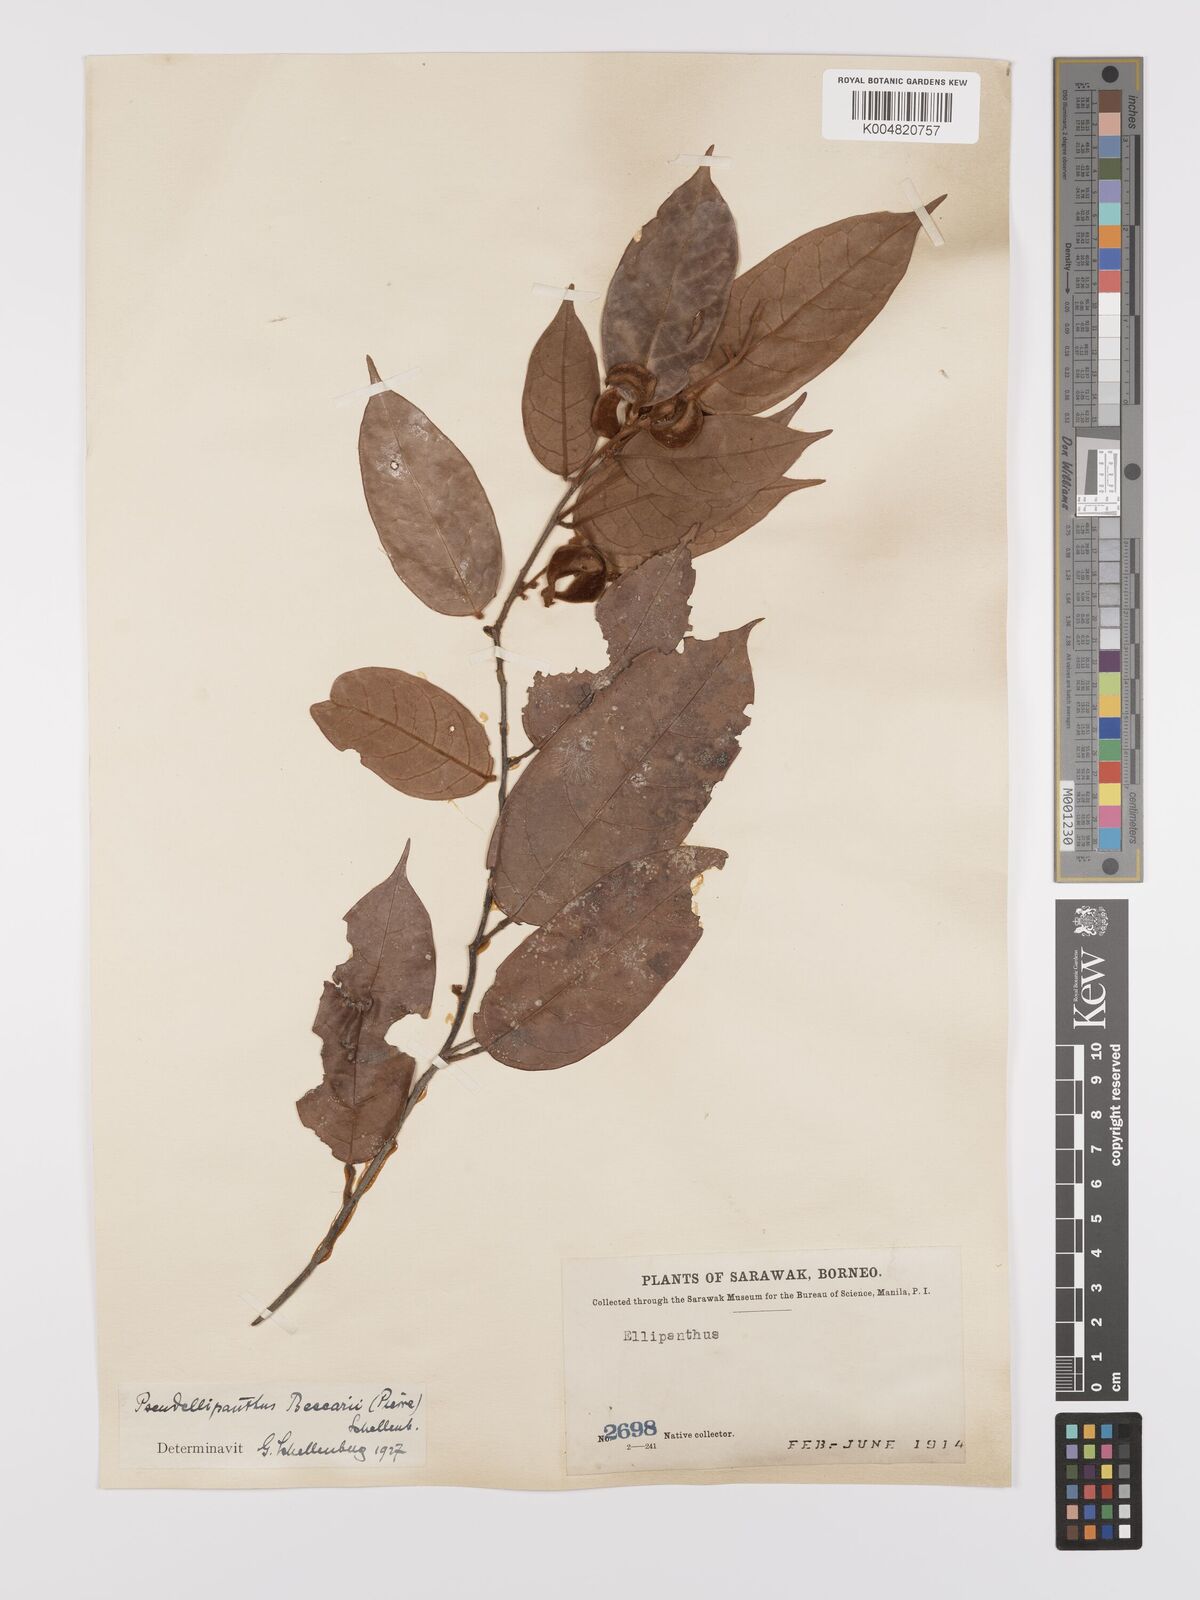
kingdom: Plantae
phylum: Tracheophyta
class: Magnoliopsida
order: Oxalidales
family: Connaraceae
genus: Ellipanthus
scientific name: Ellipanthus beccarii
